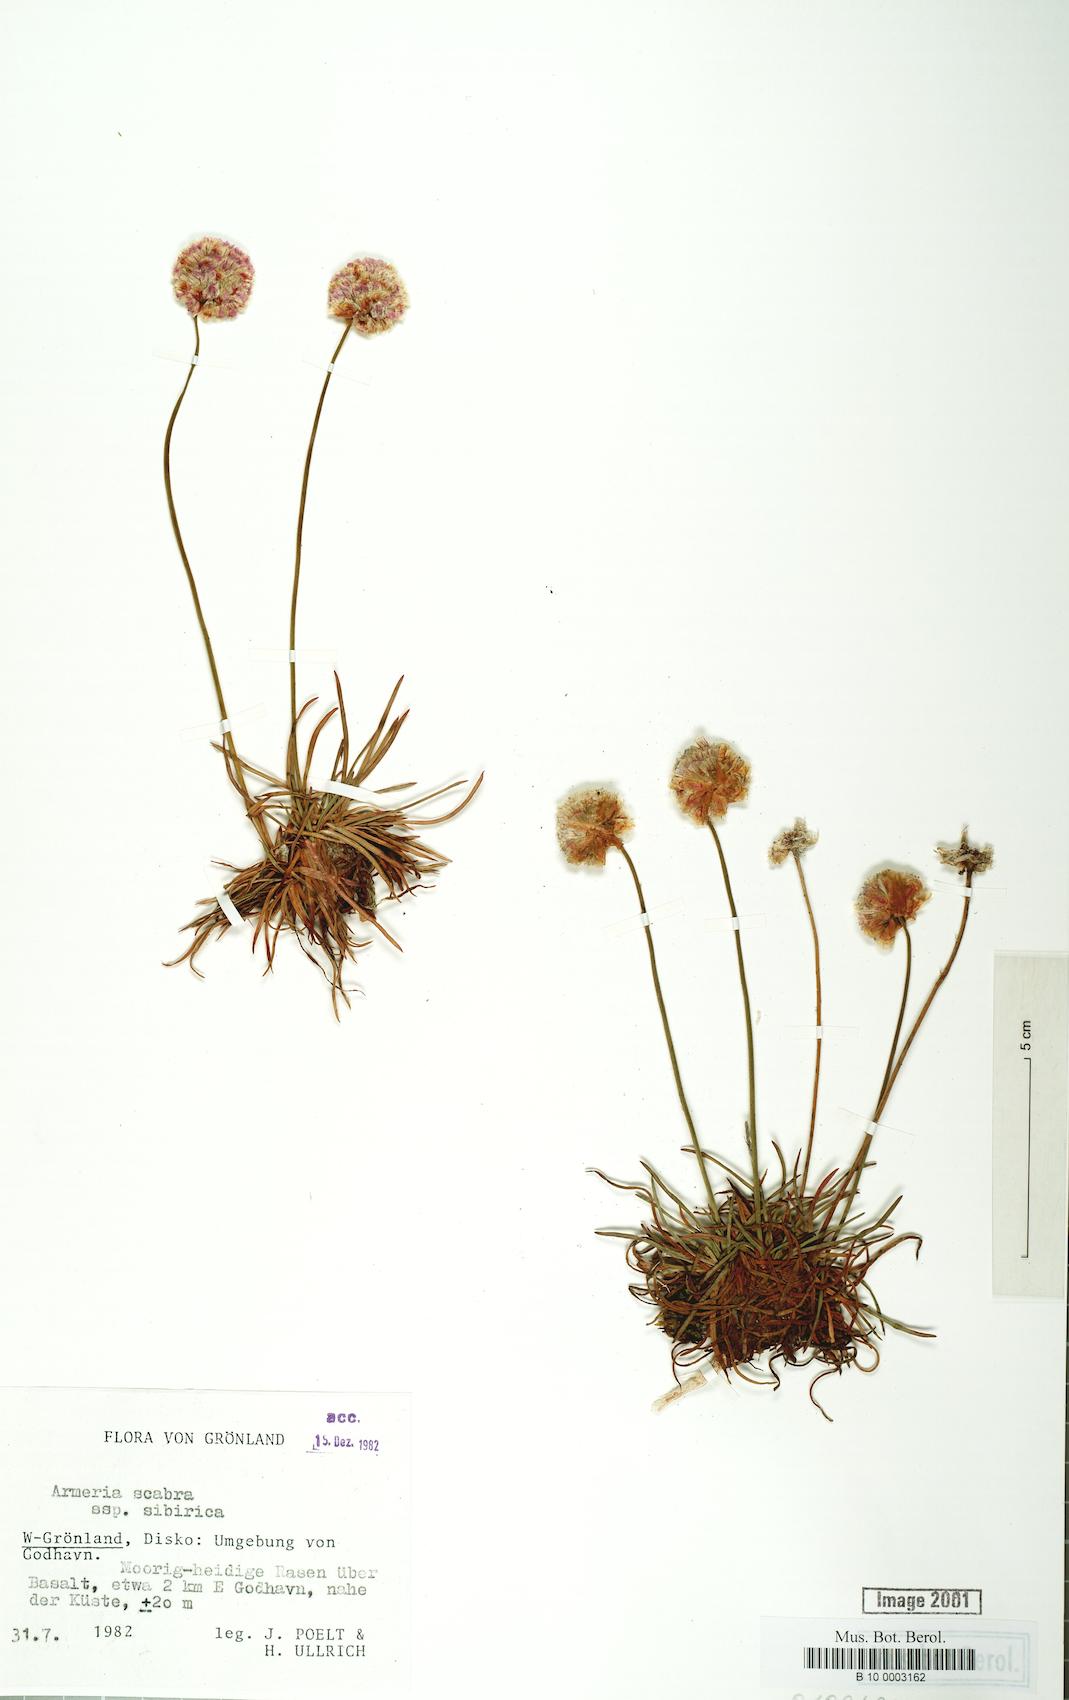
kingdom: Plantae
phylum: Tracheophyta
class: Magnoliopsida
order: Caryophyllales
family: Plumbaginaceae
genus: Armeria
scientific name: Armeria maritima
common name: Thrift
